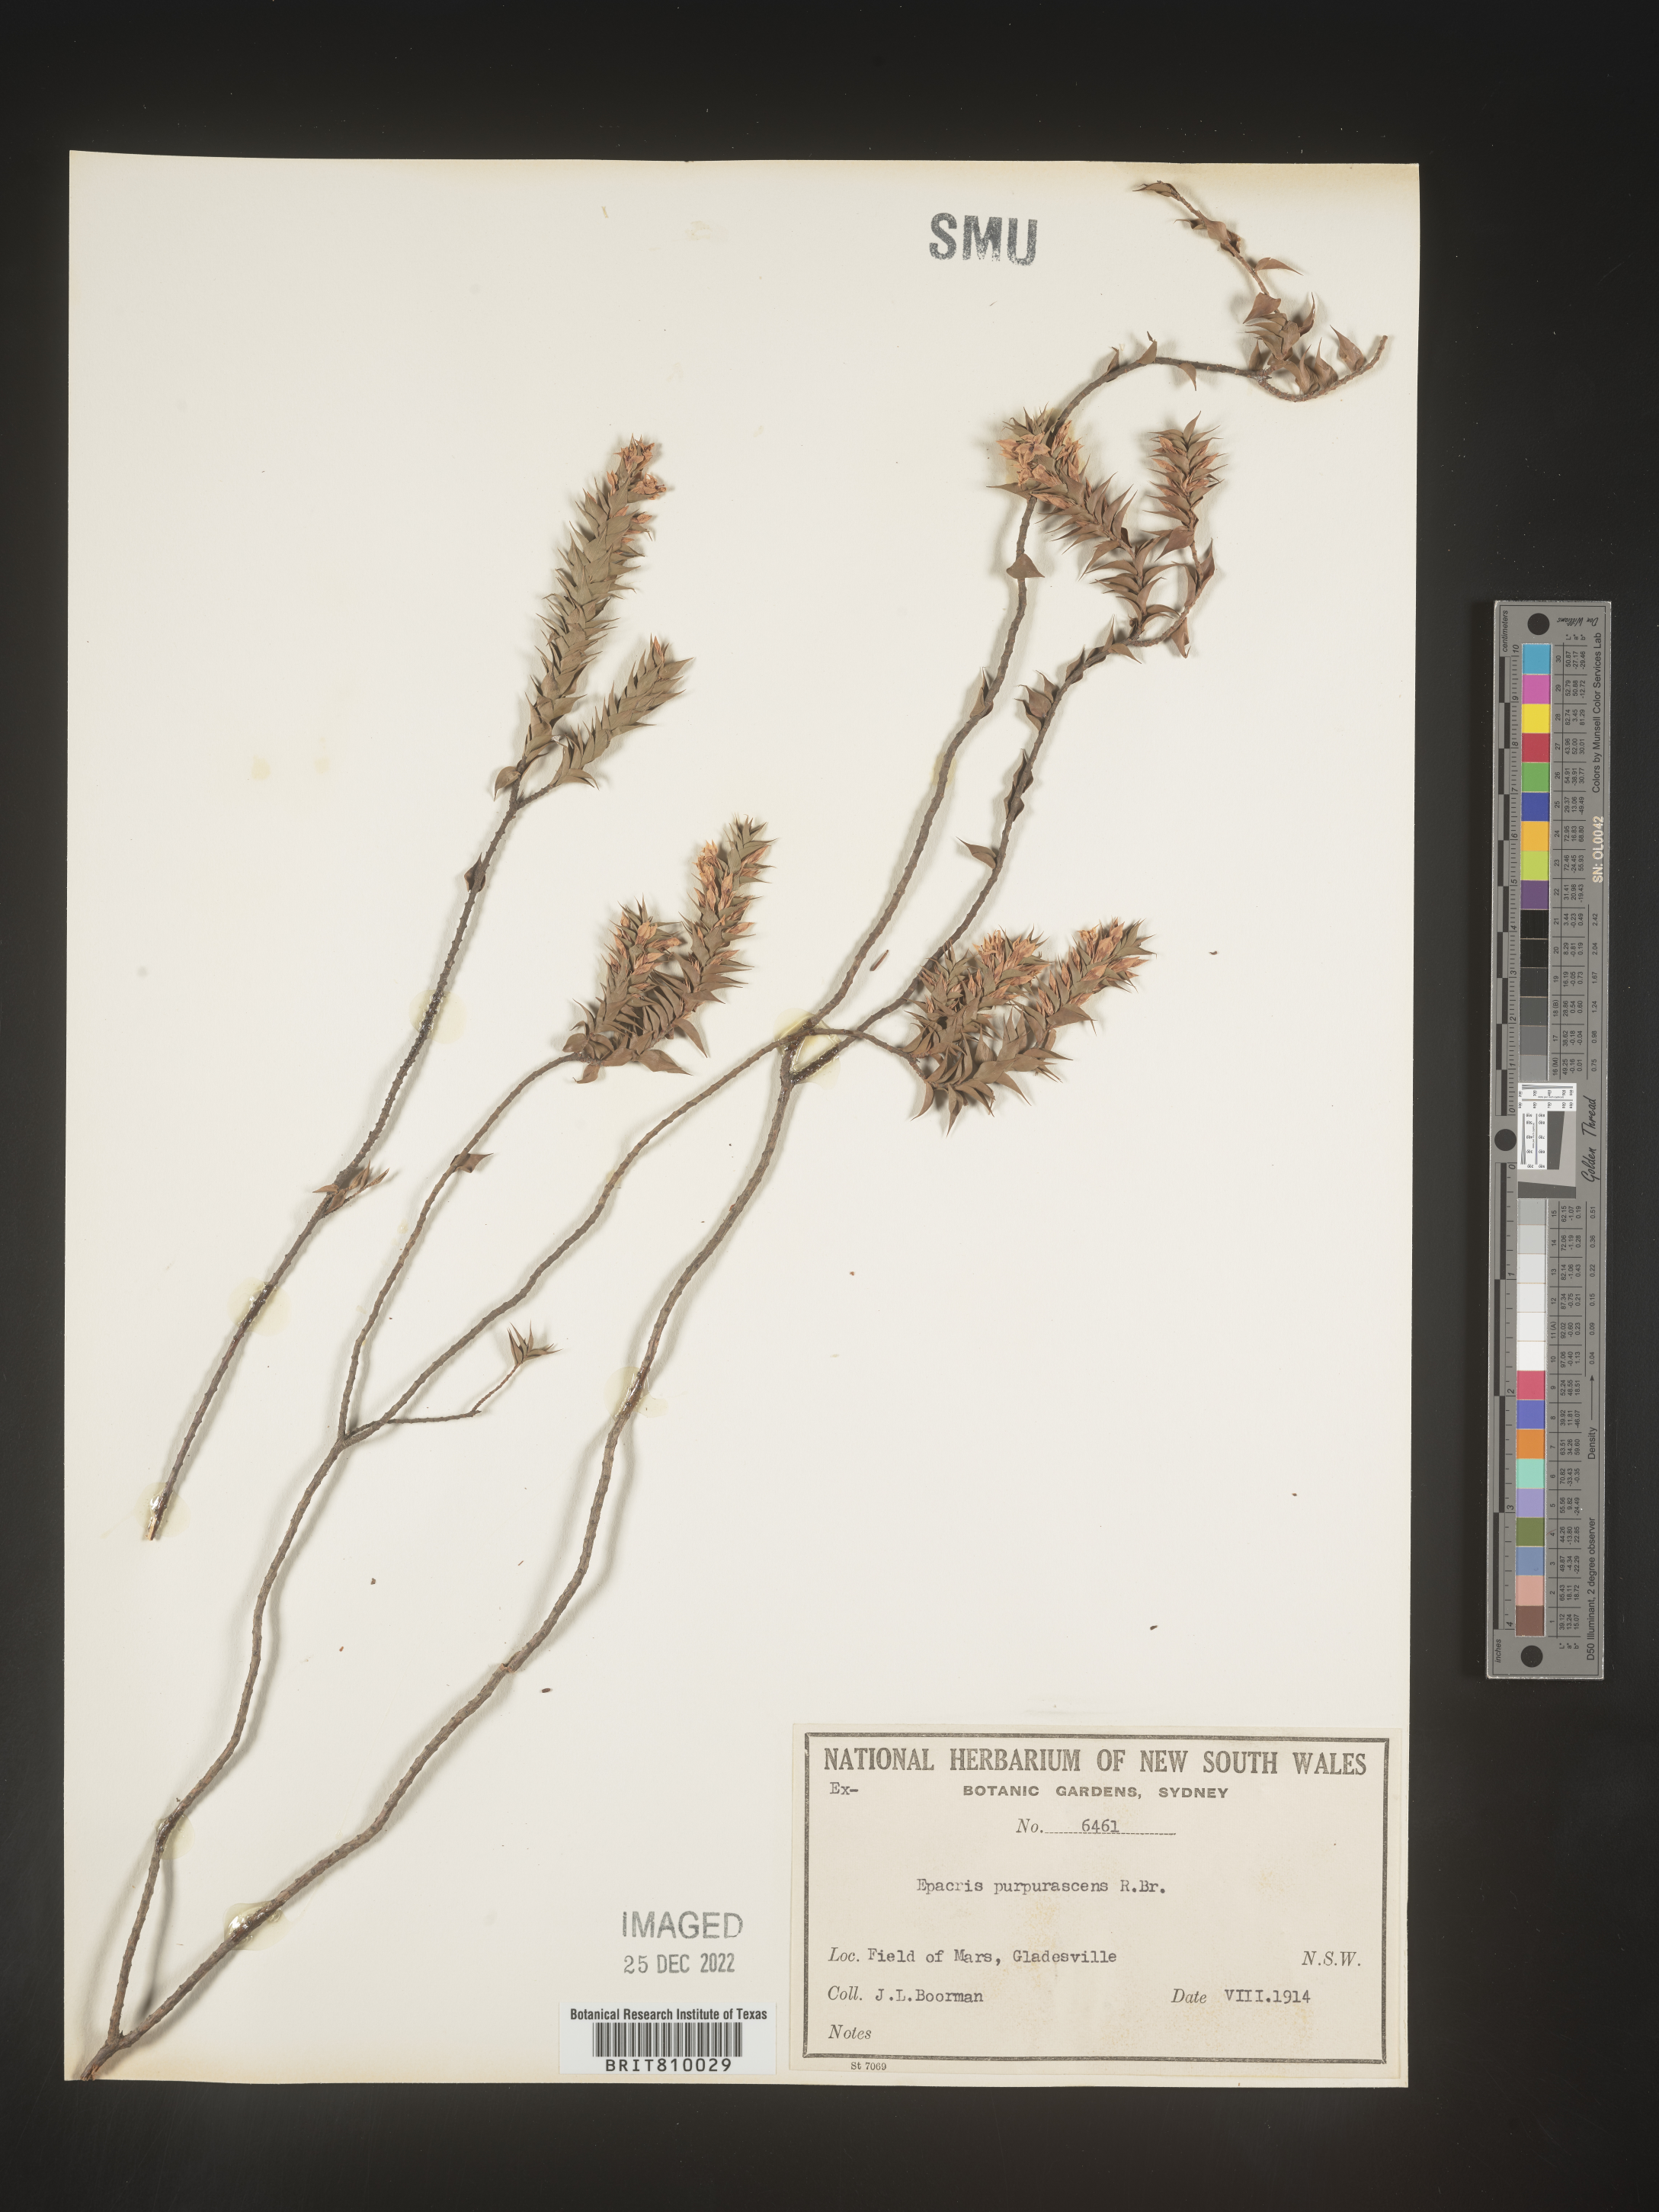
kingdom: Plantae
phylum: Tracheophyta
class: Magnoliopsida
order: Ericales
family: Ericaceae
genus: Epacris
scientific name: Epacris
